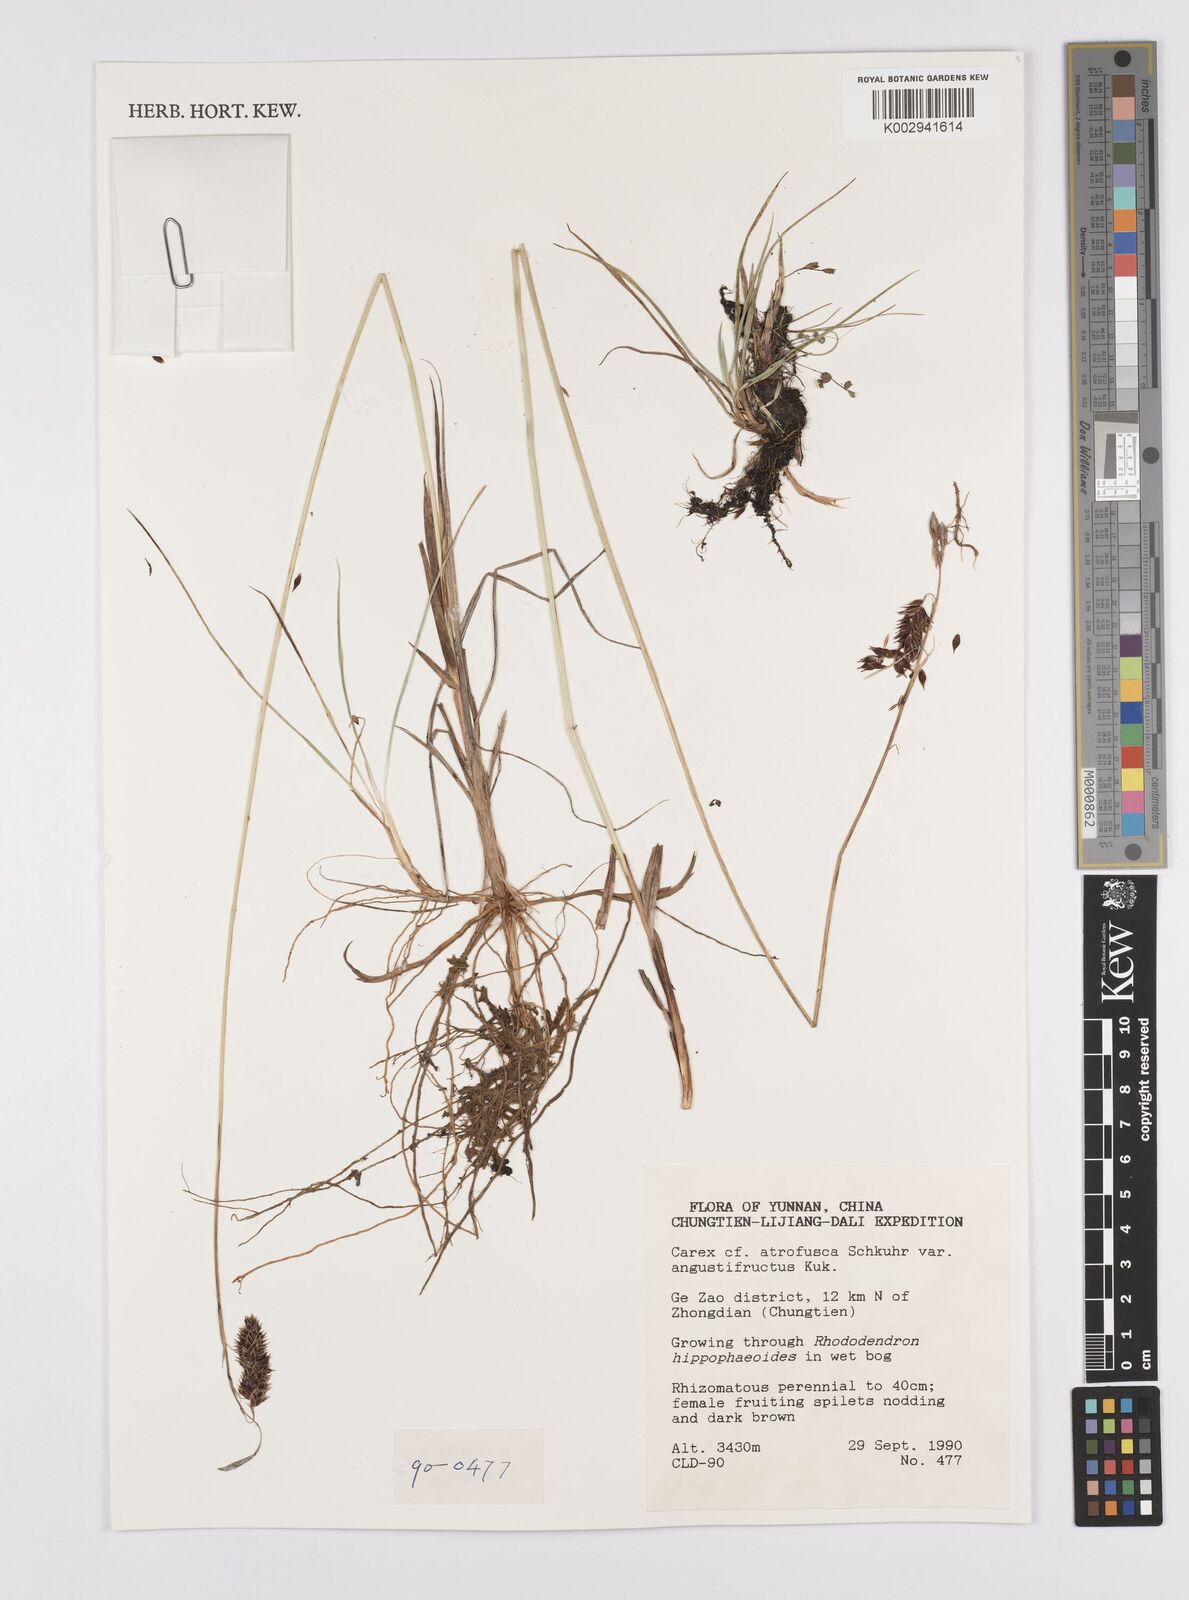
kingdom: Plantae
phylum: Tracheophyta
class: Liliopsida
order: Poales
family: Cyperaceae
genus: Carex
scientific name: Carex atrofusca
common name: Scorched alpine-sedge
